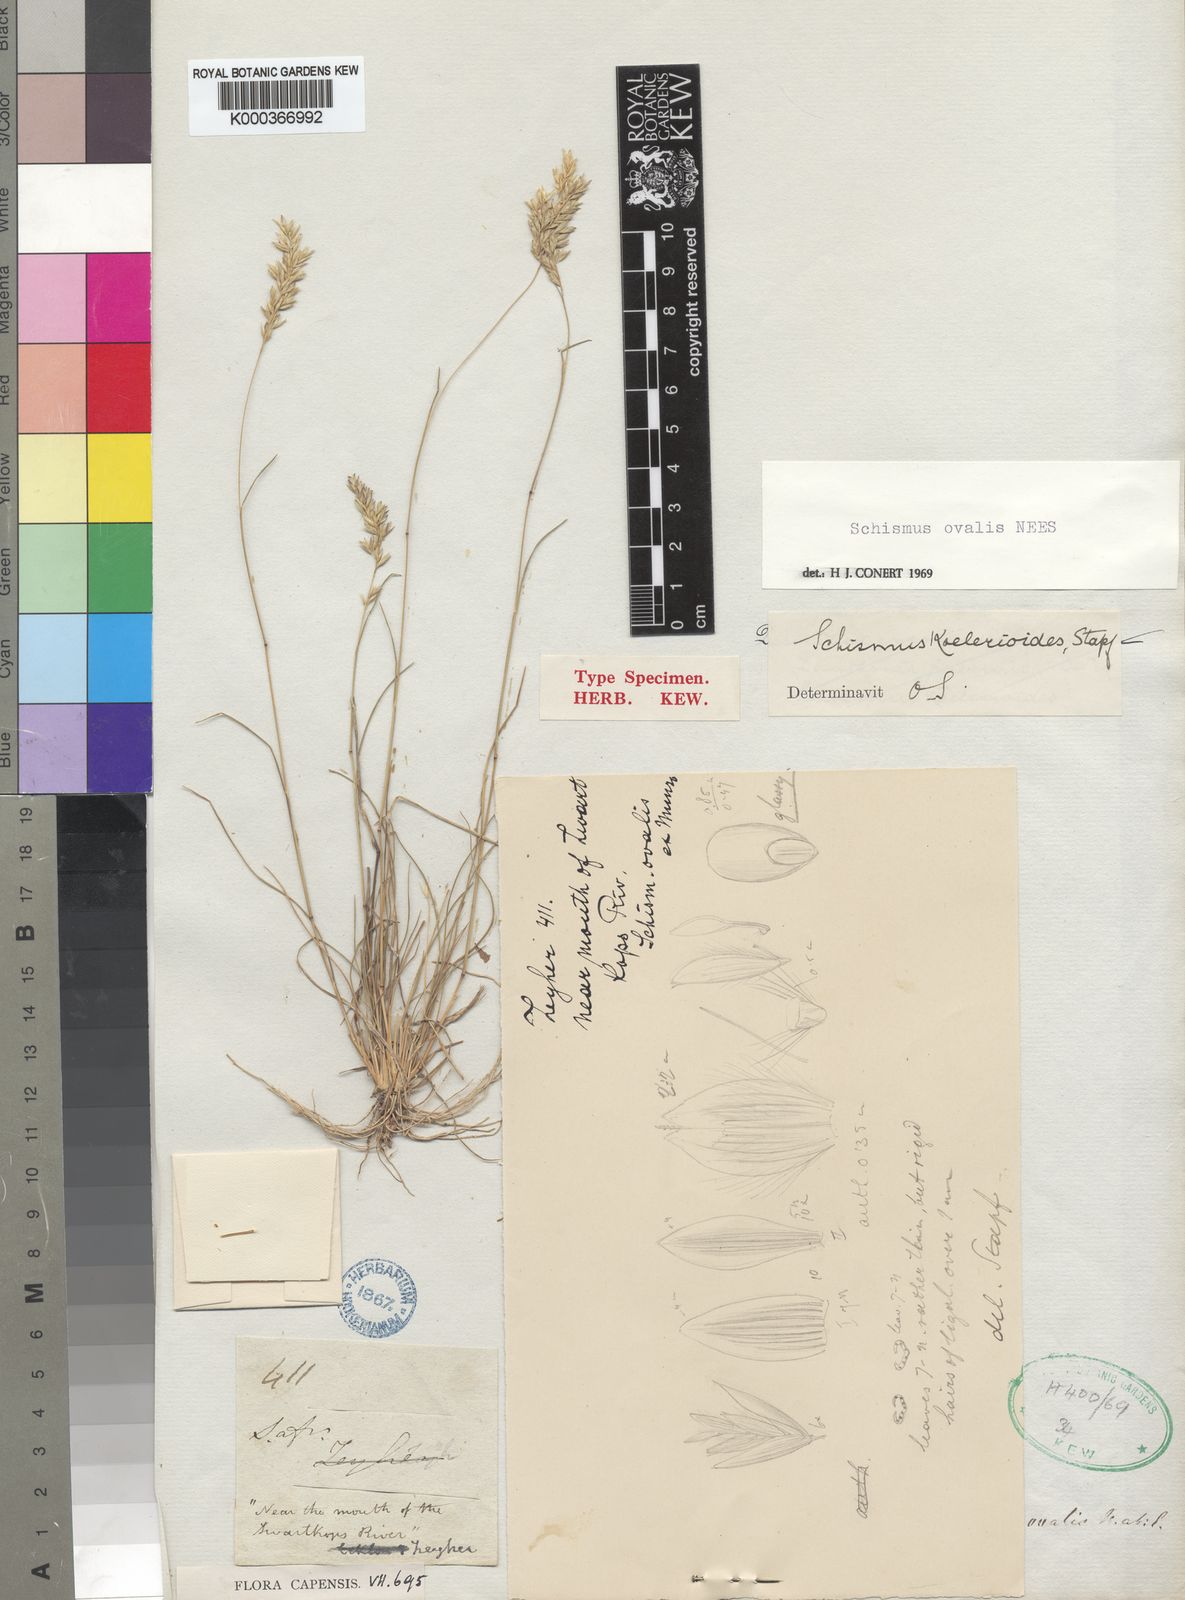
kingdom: Plantae
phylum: Tracheophyta
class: Liliopsida
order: Poales
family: Poaceae
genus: Schismus
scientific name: Schismus inermis
